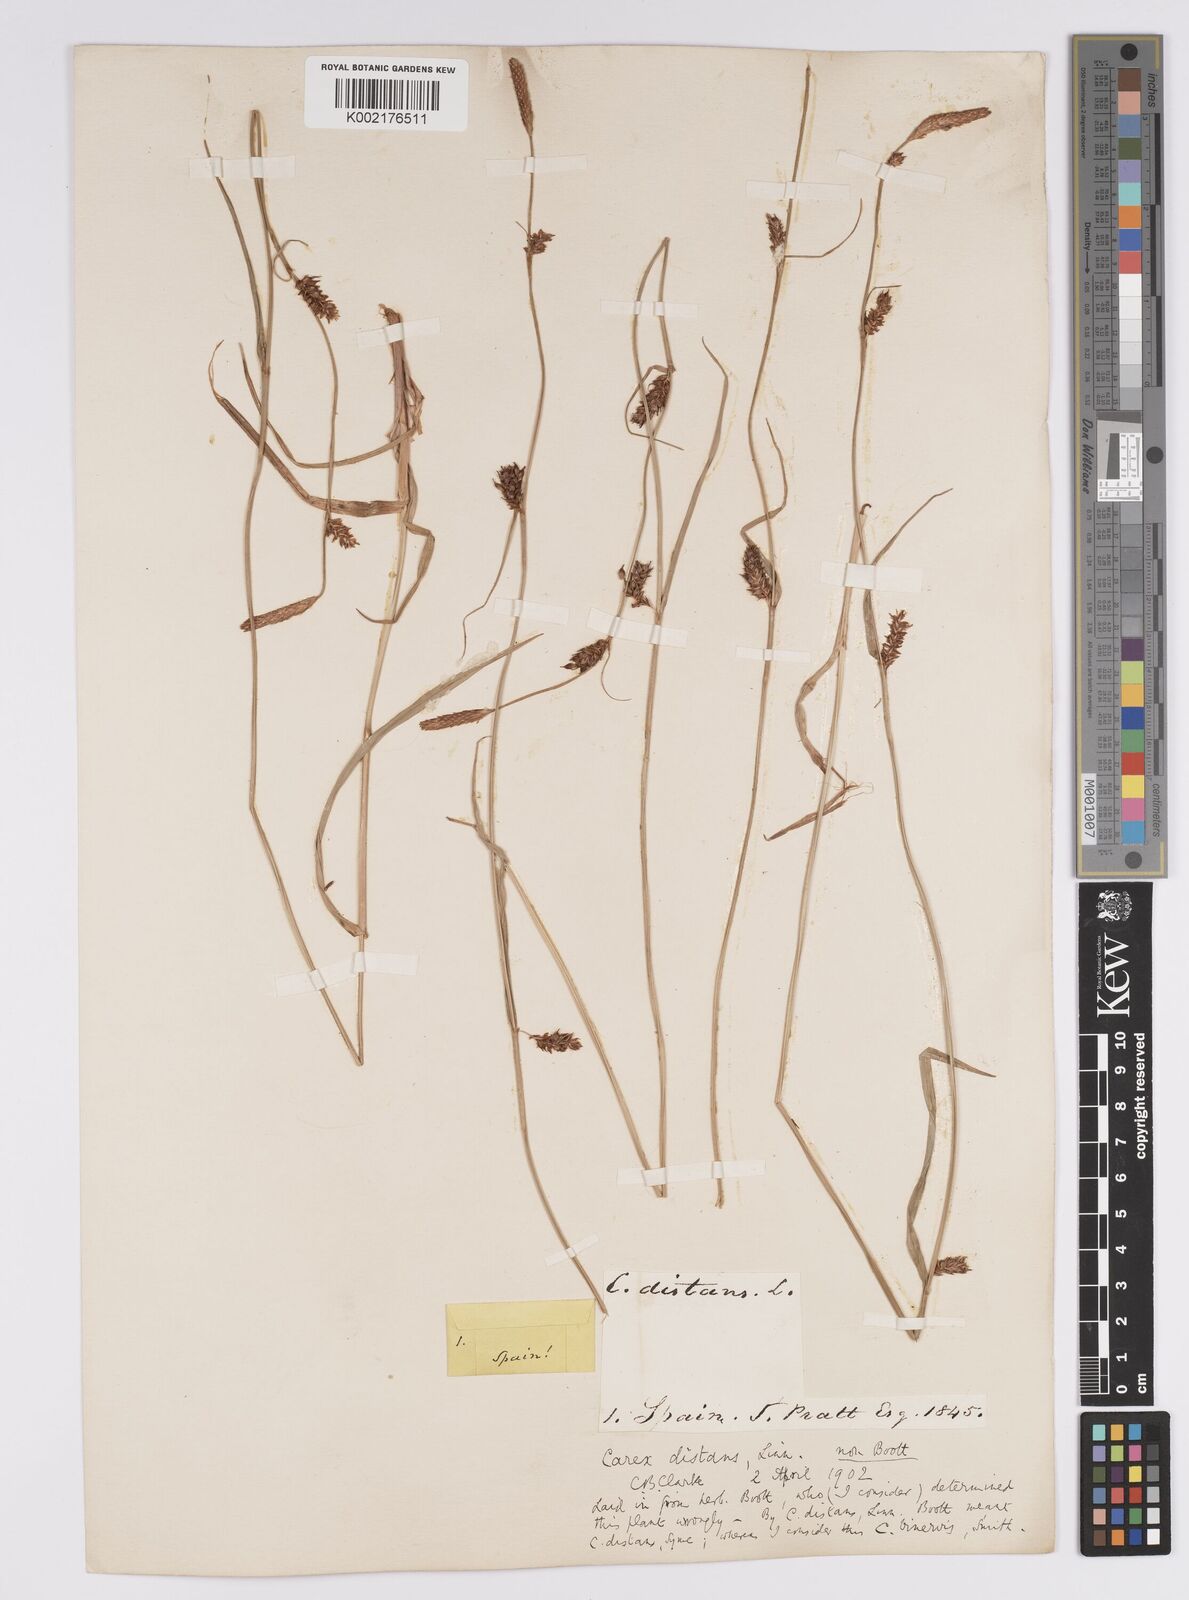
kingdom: Plantae
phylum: Tracheophyta
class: Liliopsida
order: Poales
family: Cyperaceae
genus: Carex
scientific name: Carex distans
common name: Distant sedge
